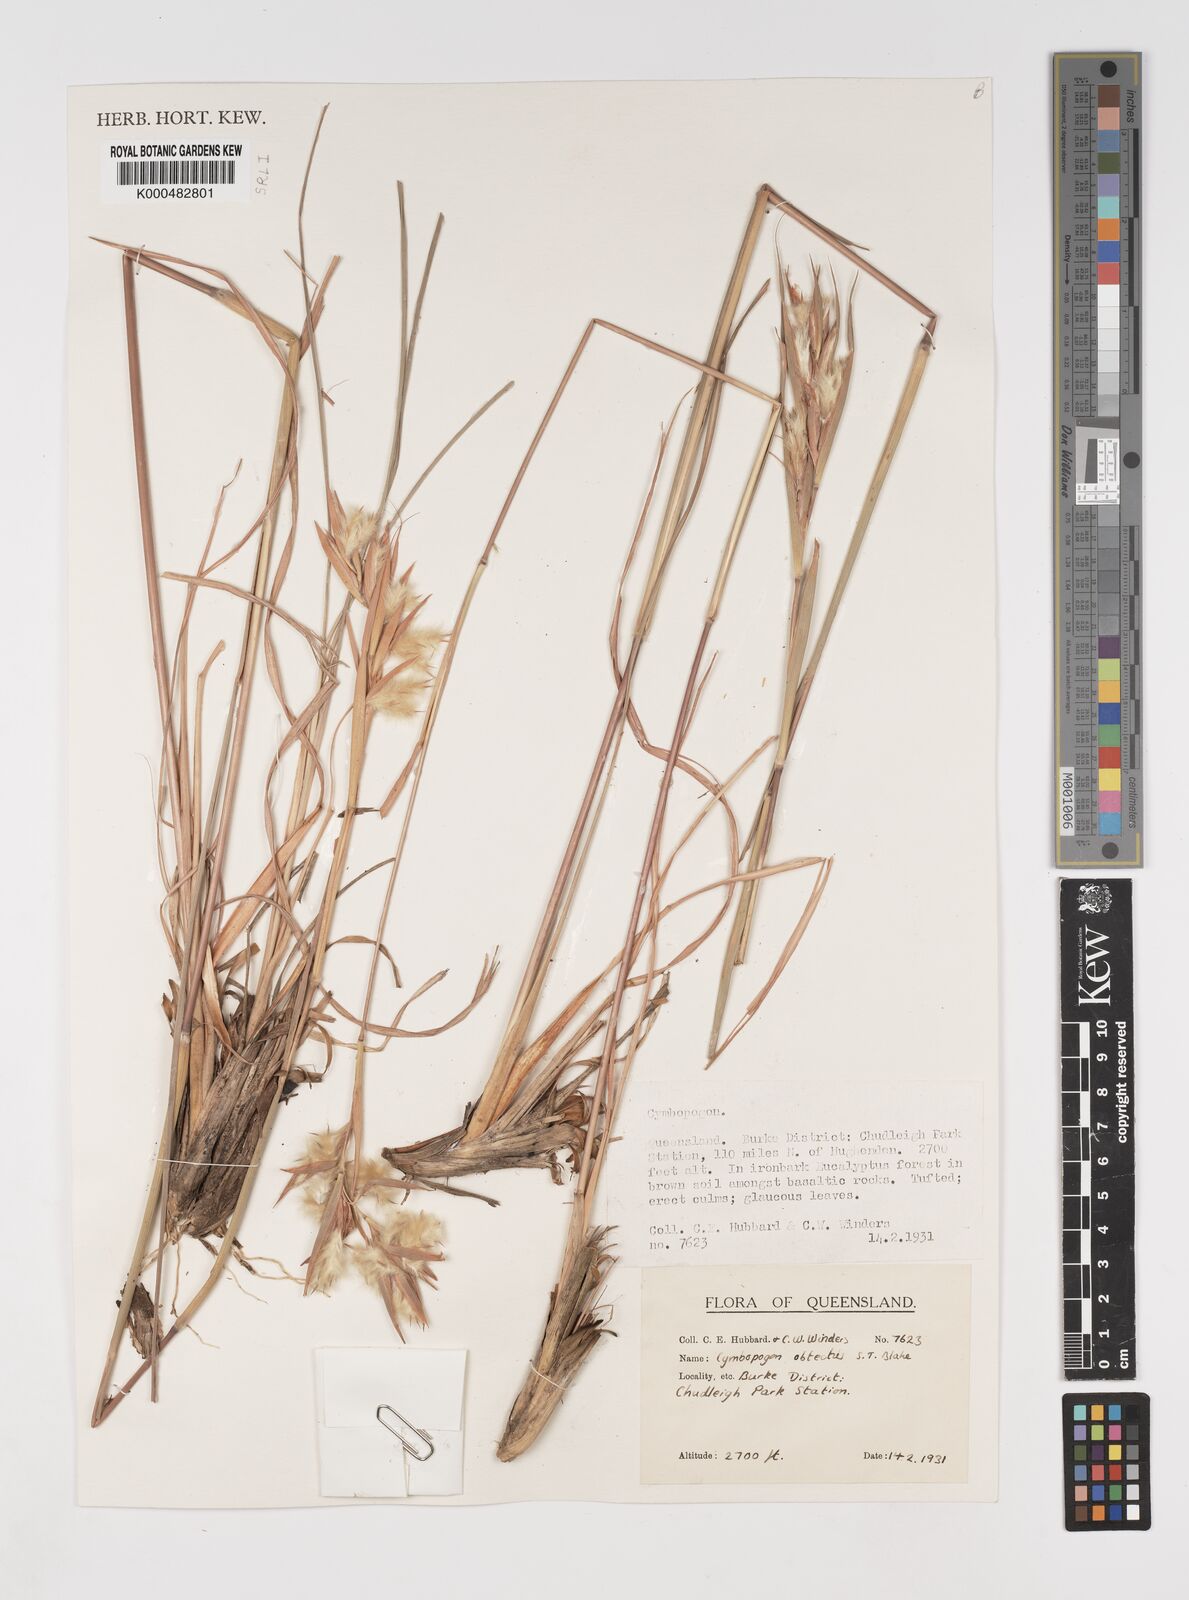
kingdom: Plantae
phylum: Tracheophyta
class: Liliopsida
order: Poales
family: Poaceae
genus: Cymbopogon
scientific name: Cymbopogon obtectus
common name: Silky heads
